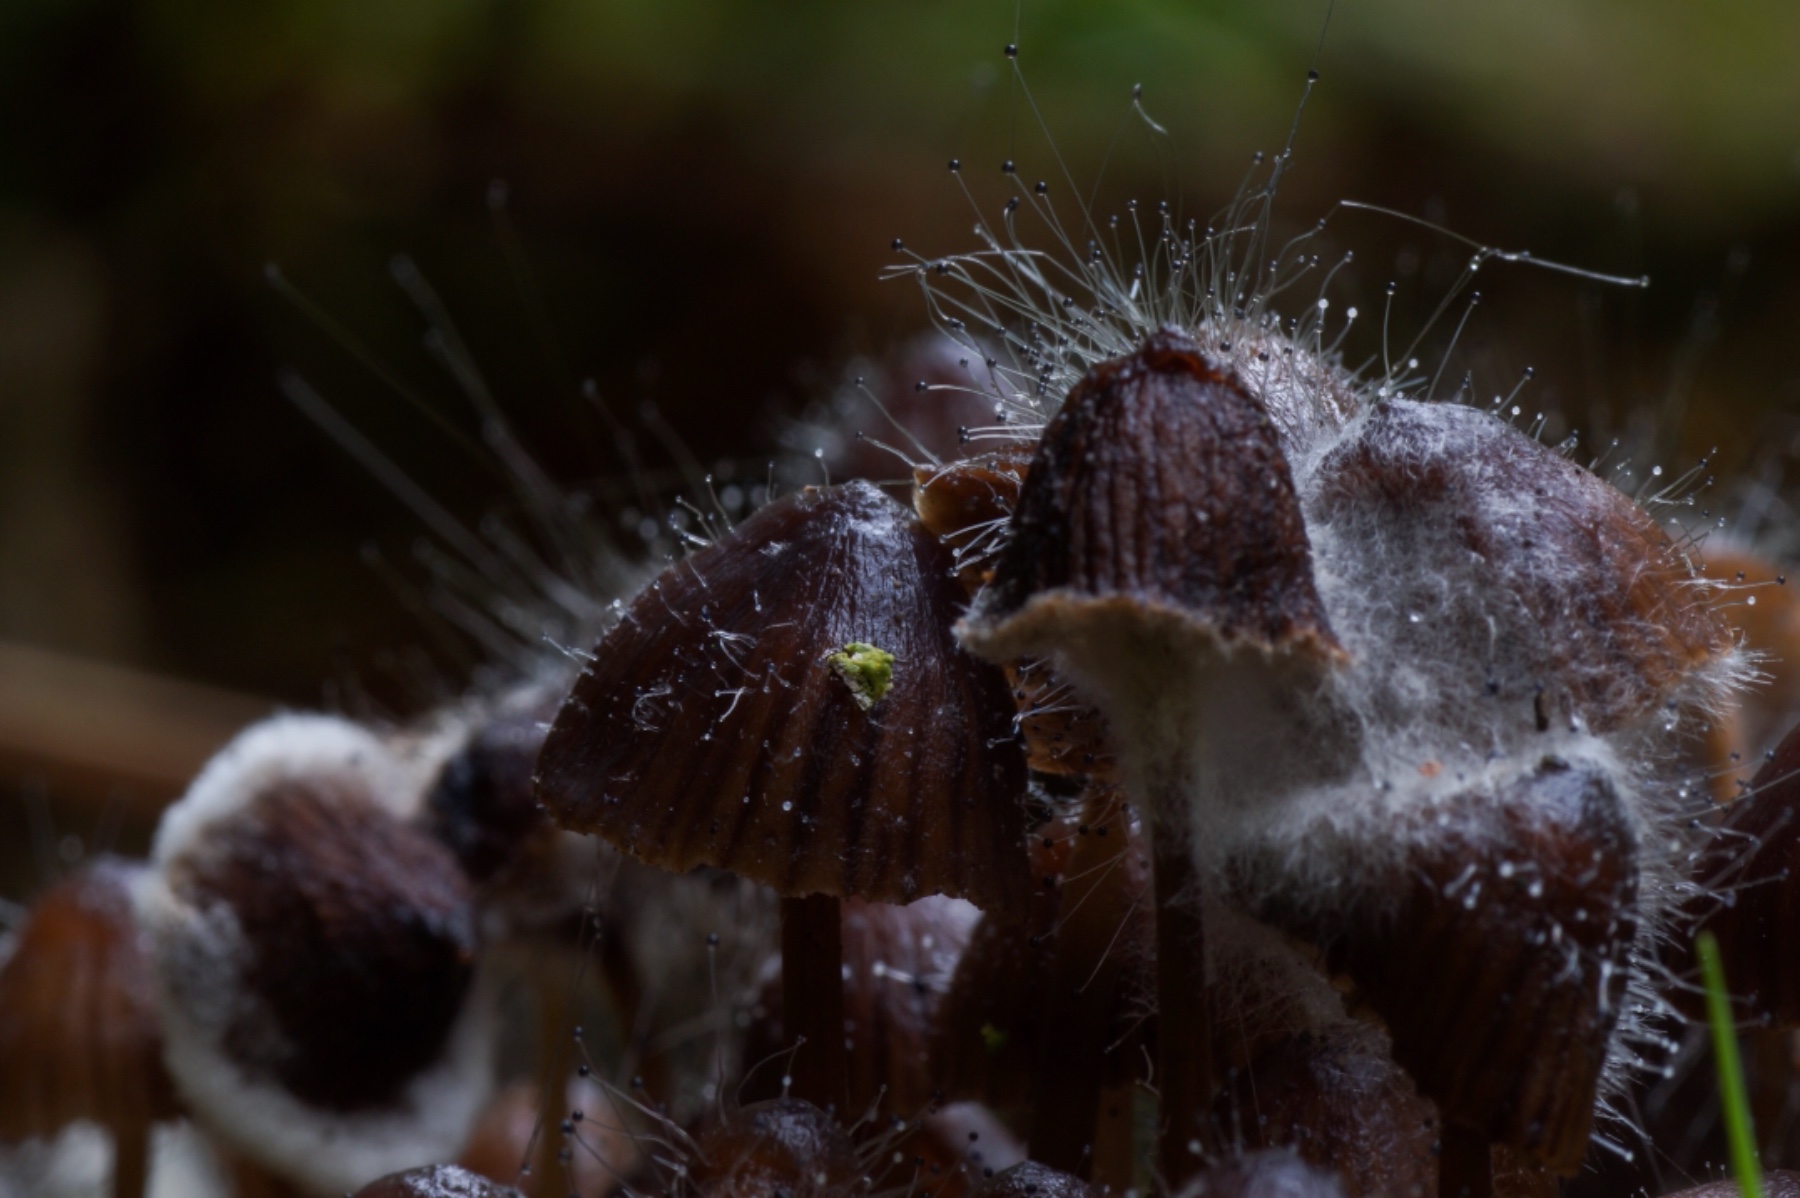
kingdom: Fungi
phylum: Mucoromycota
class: Mucoromycetes
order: Mucorales
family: Phycomycetaceae
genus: Spinellus
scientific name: Spinellus fusiger
